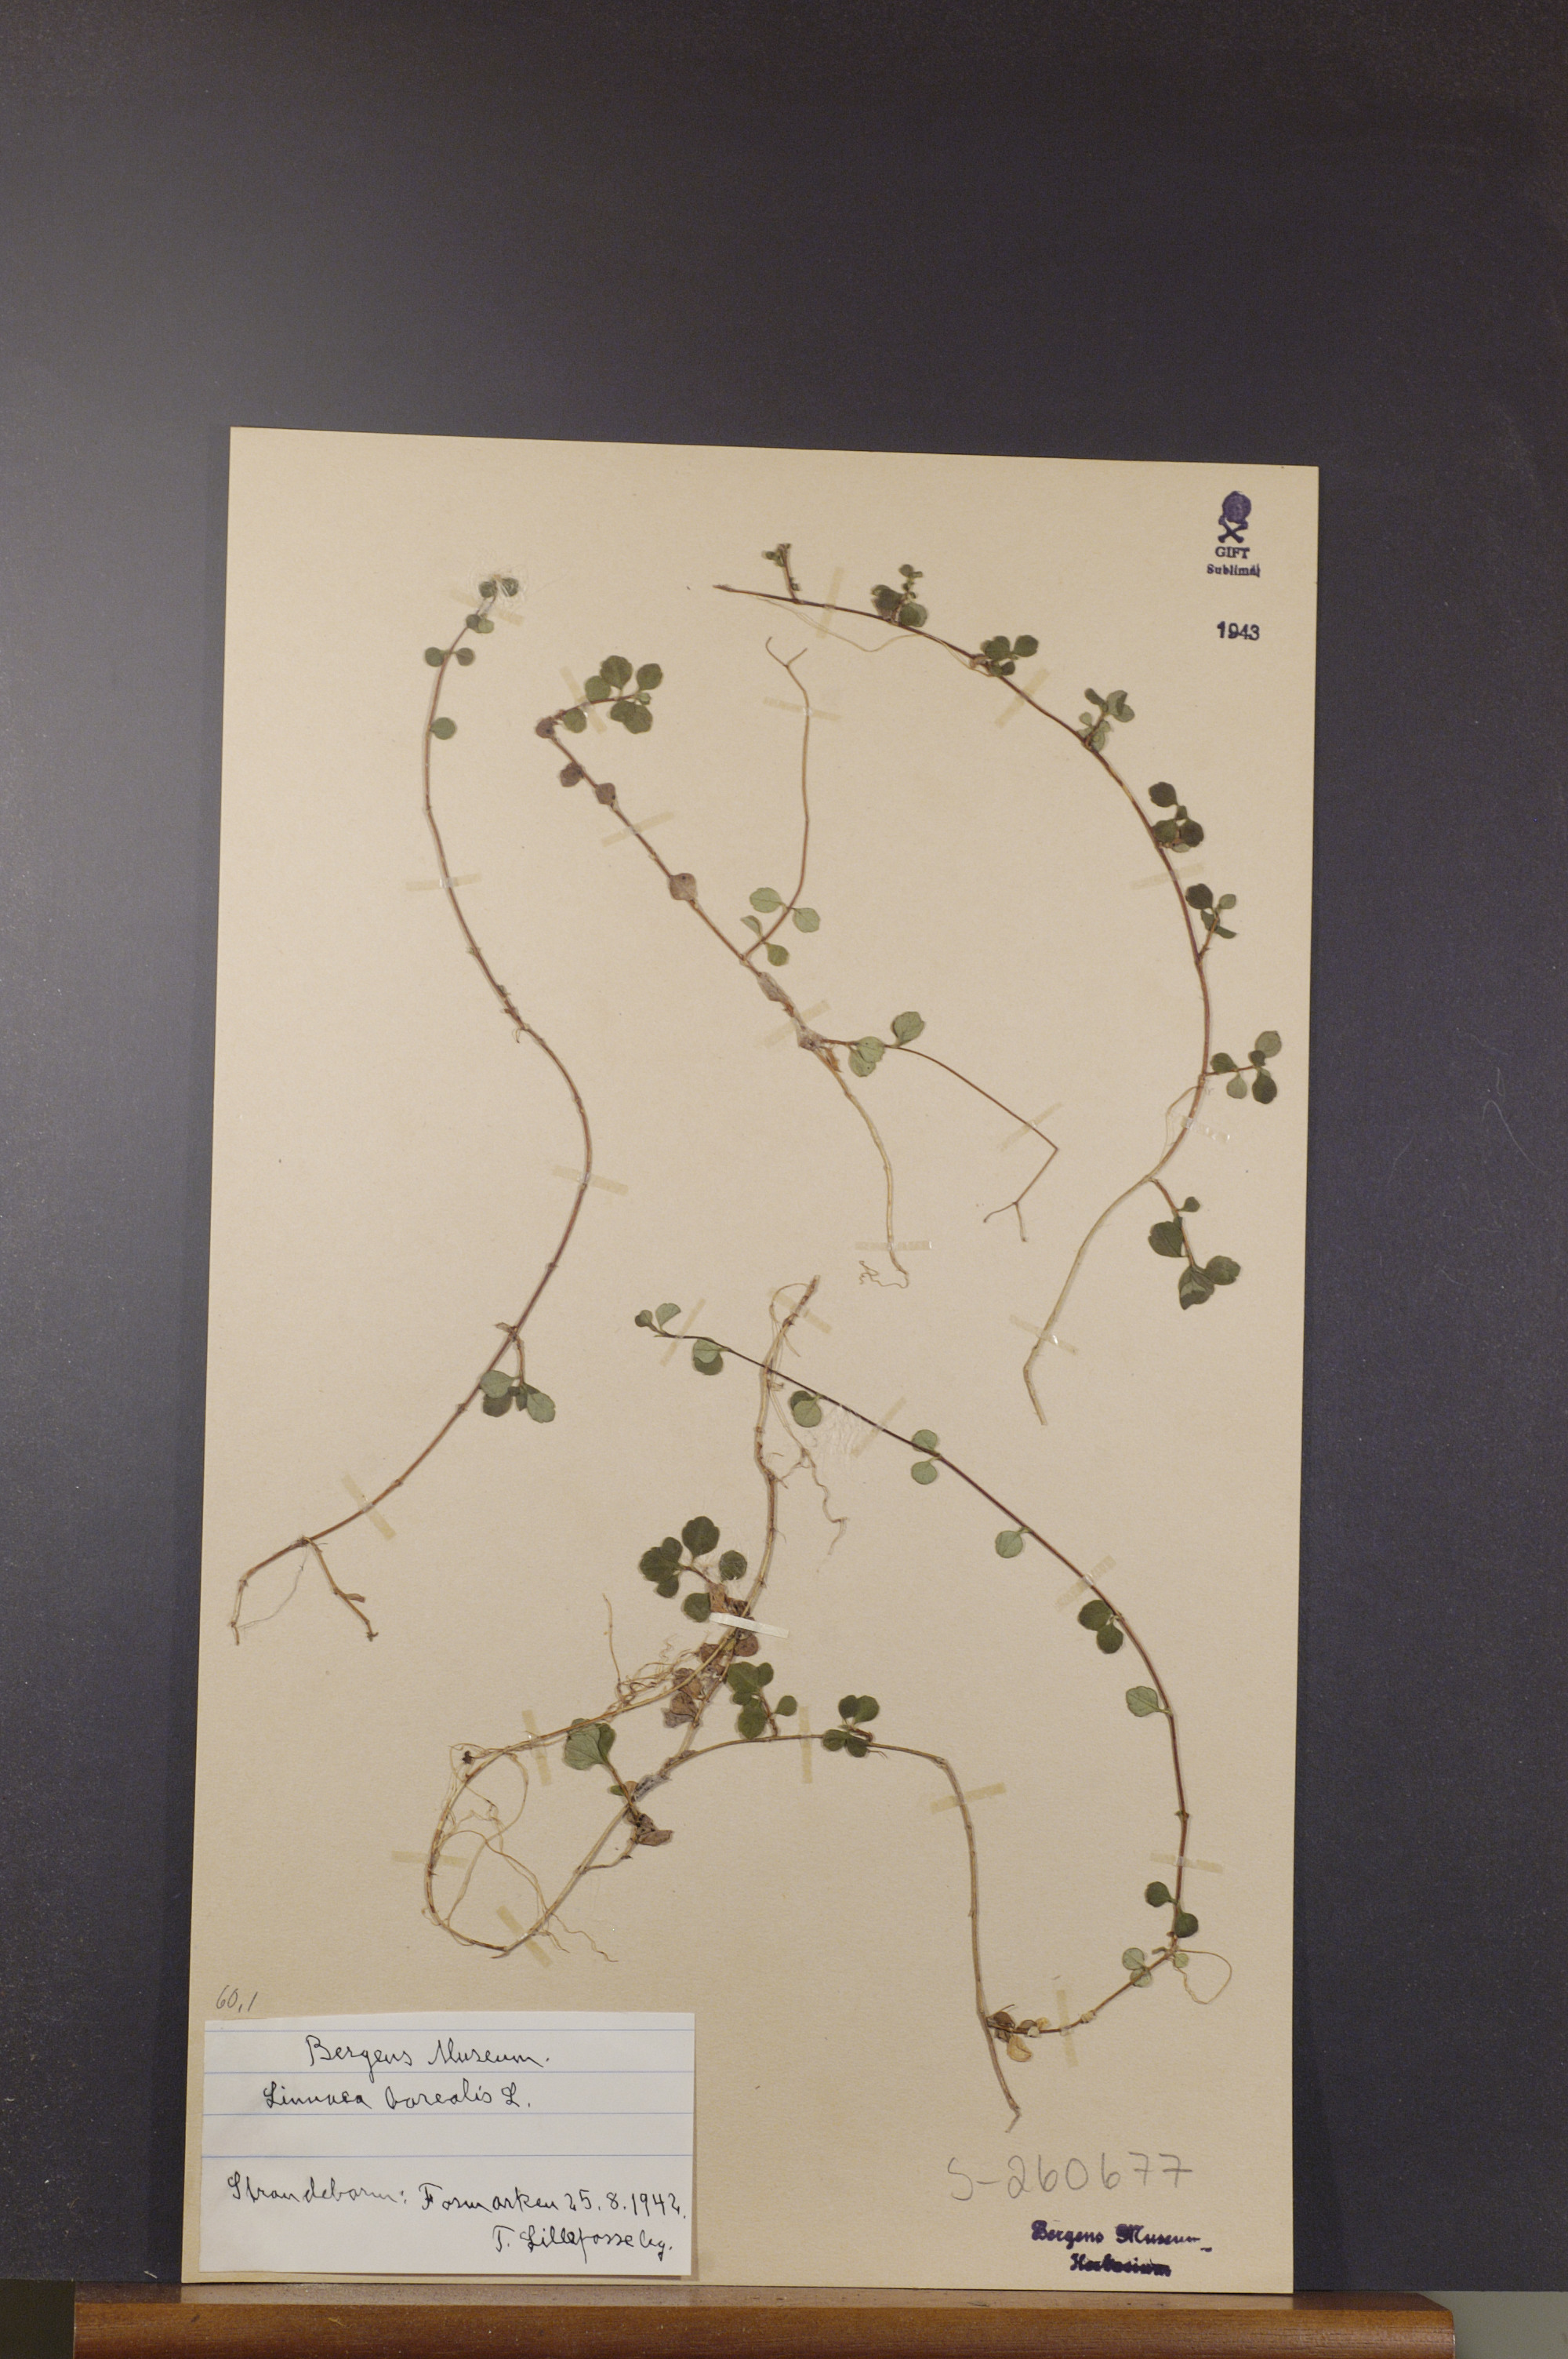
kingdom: Plantae
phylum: Tracheophyta
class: Magnoliopsida
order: Dipsacales
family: Caprifoliaceae
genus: Linnaea
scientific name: Linnaea borealis
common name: Twinflower
